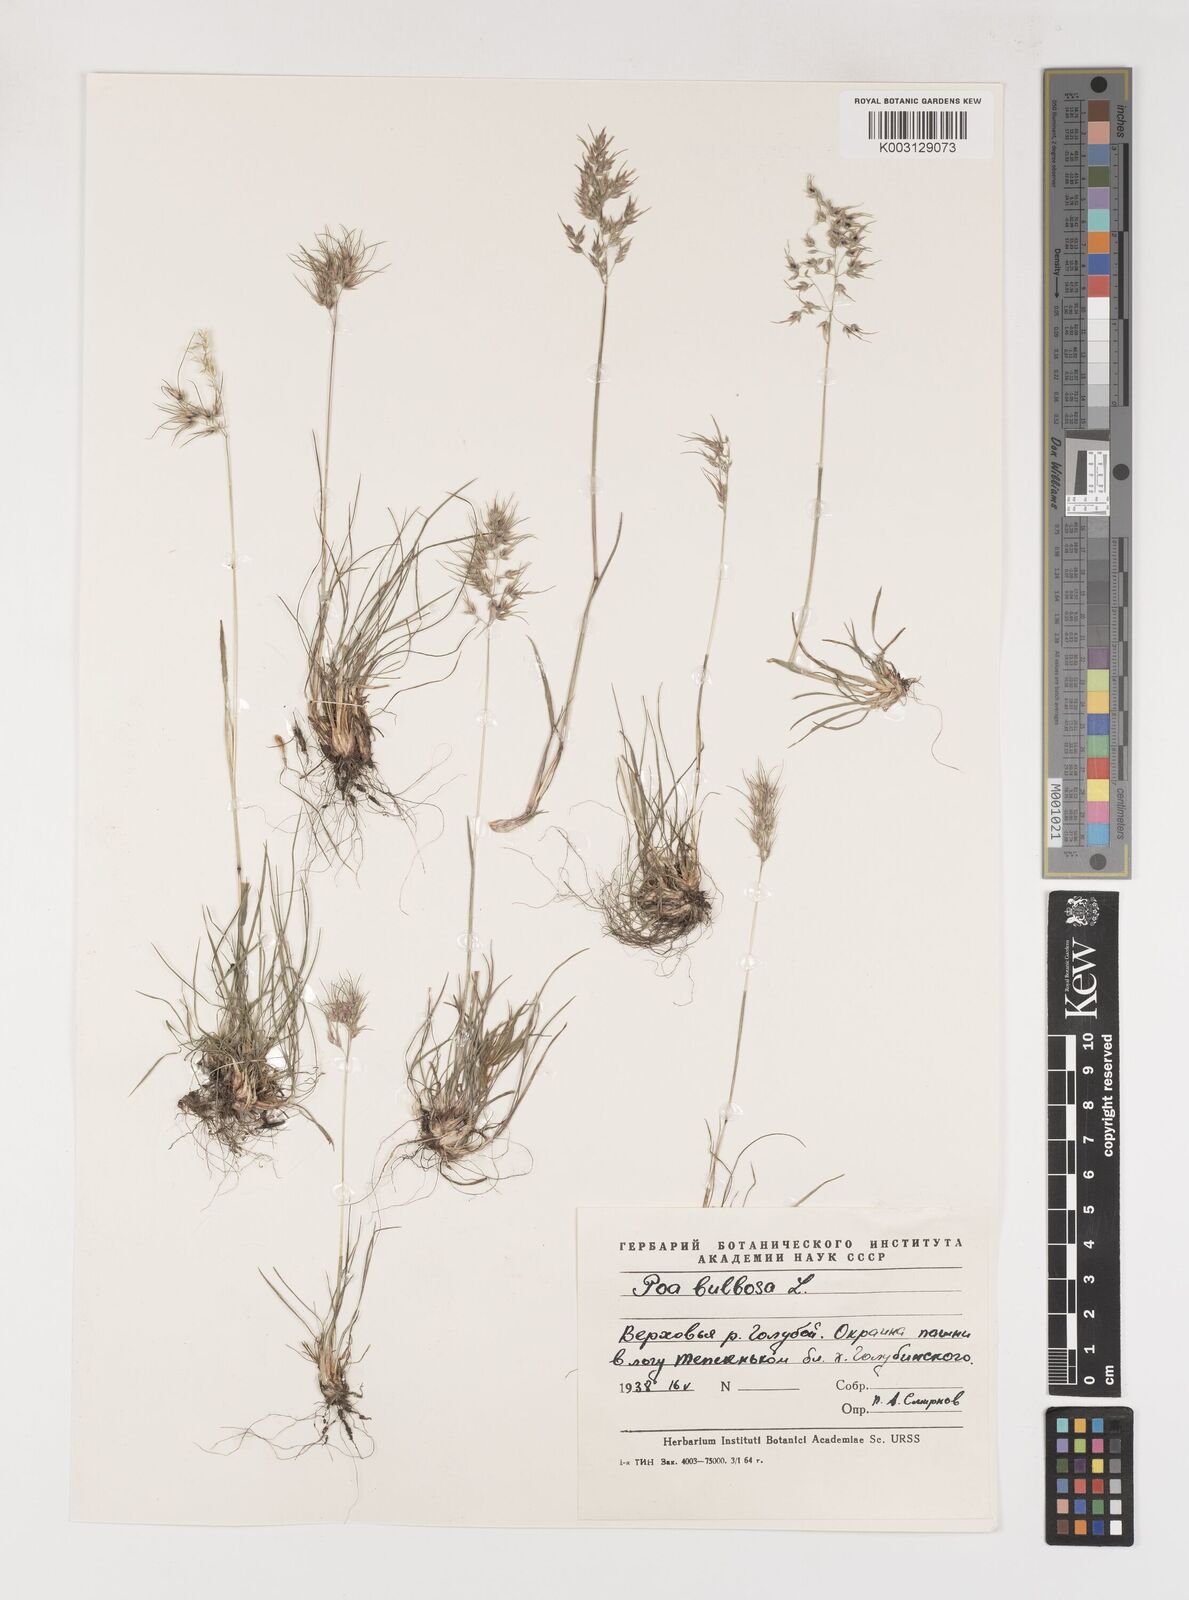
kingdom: Plantae
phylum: Tracheophyta
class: Liliopsida
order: Poales
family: Poaceae
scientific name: Poaceae
